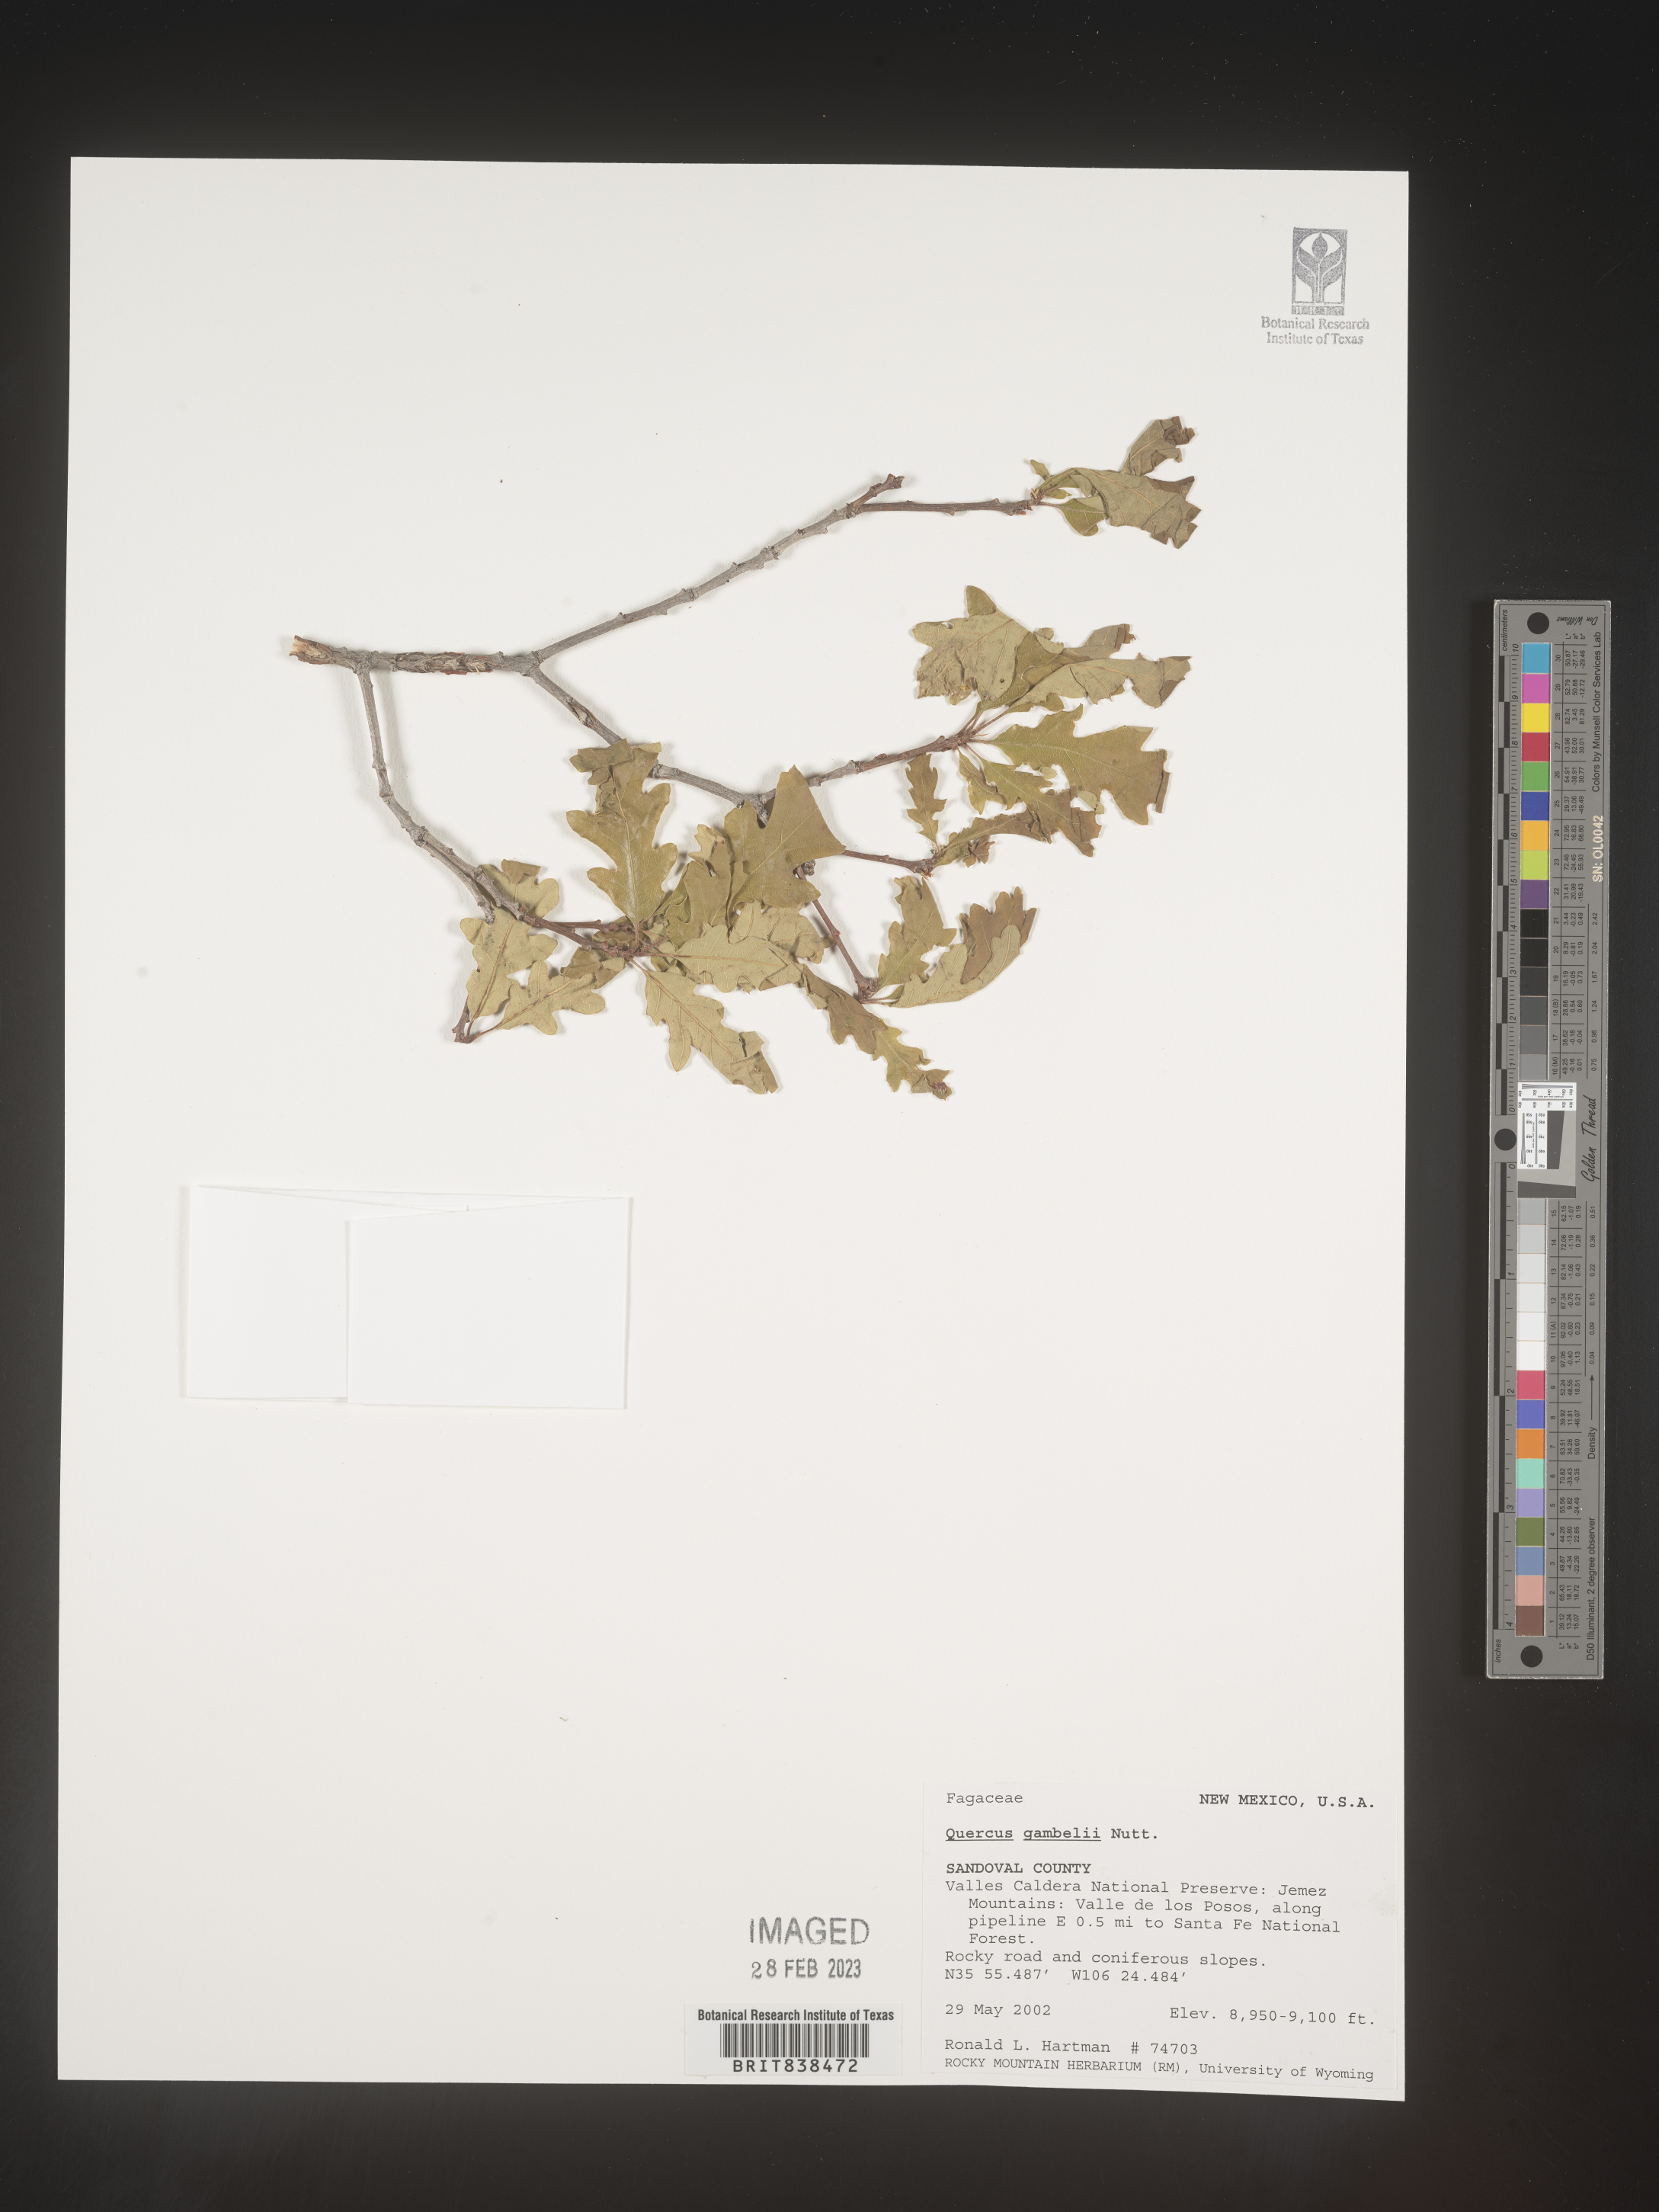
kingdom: Plantae
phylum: Tracheophyta
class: Magnoliopsida
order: Fagales
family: Fagaceae
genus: Quercus
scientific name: Quercus gambelii
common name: Gambel oak
